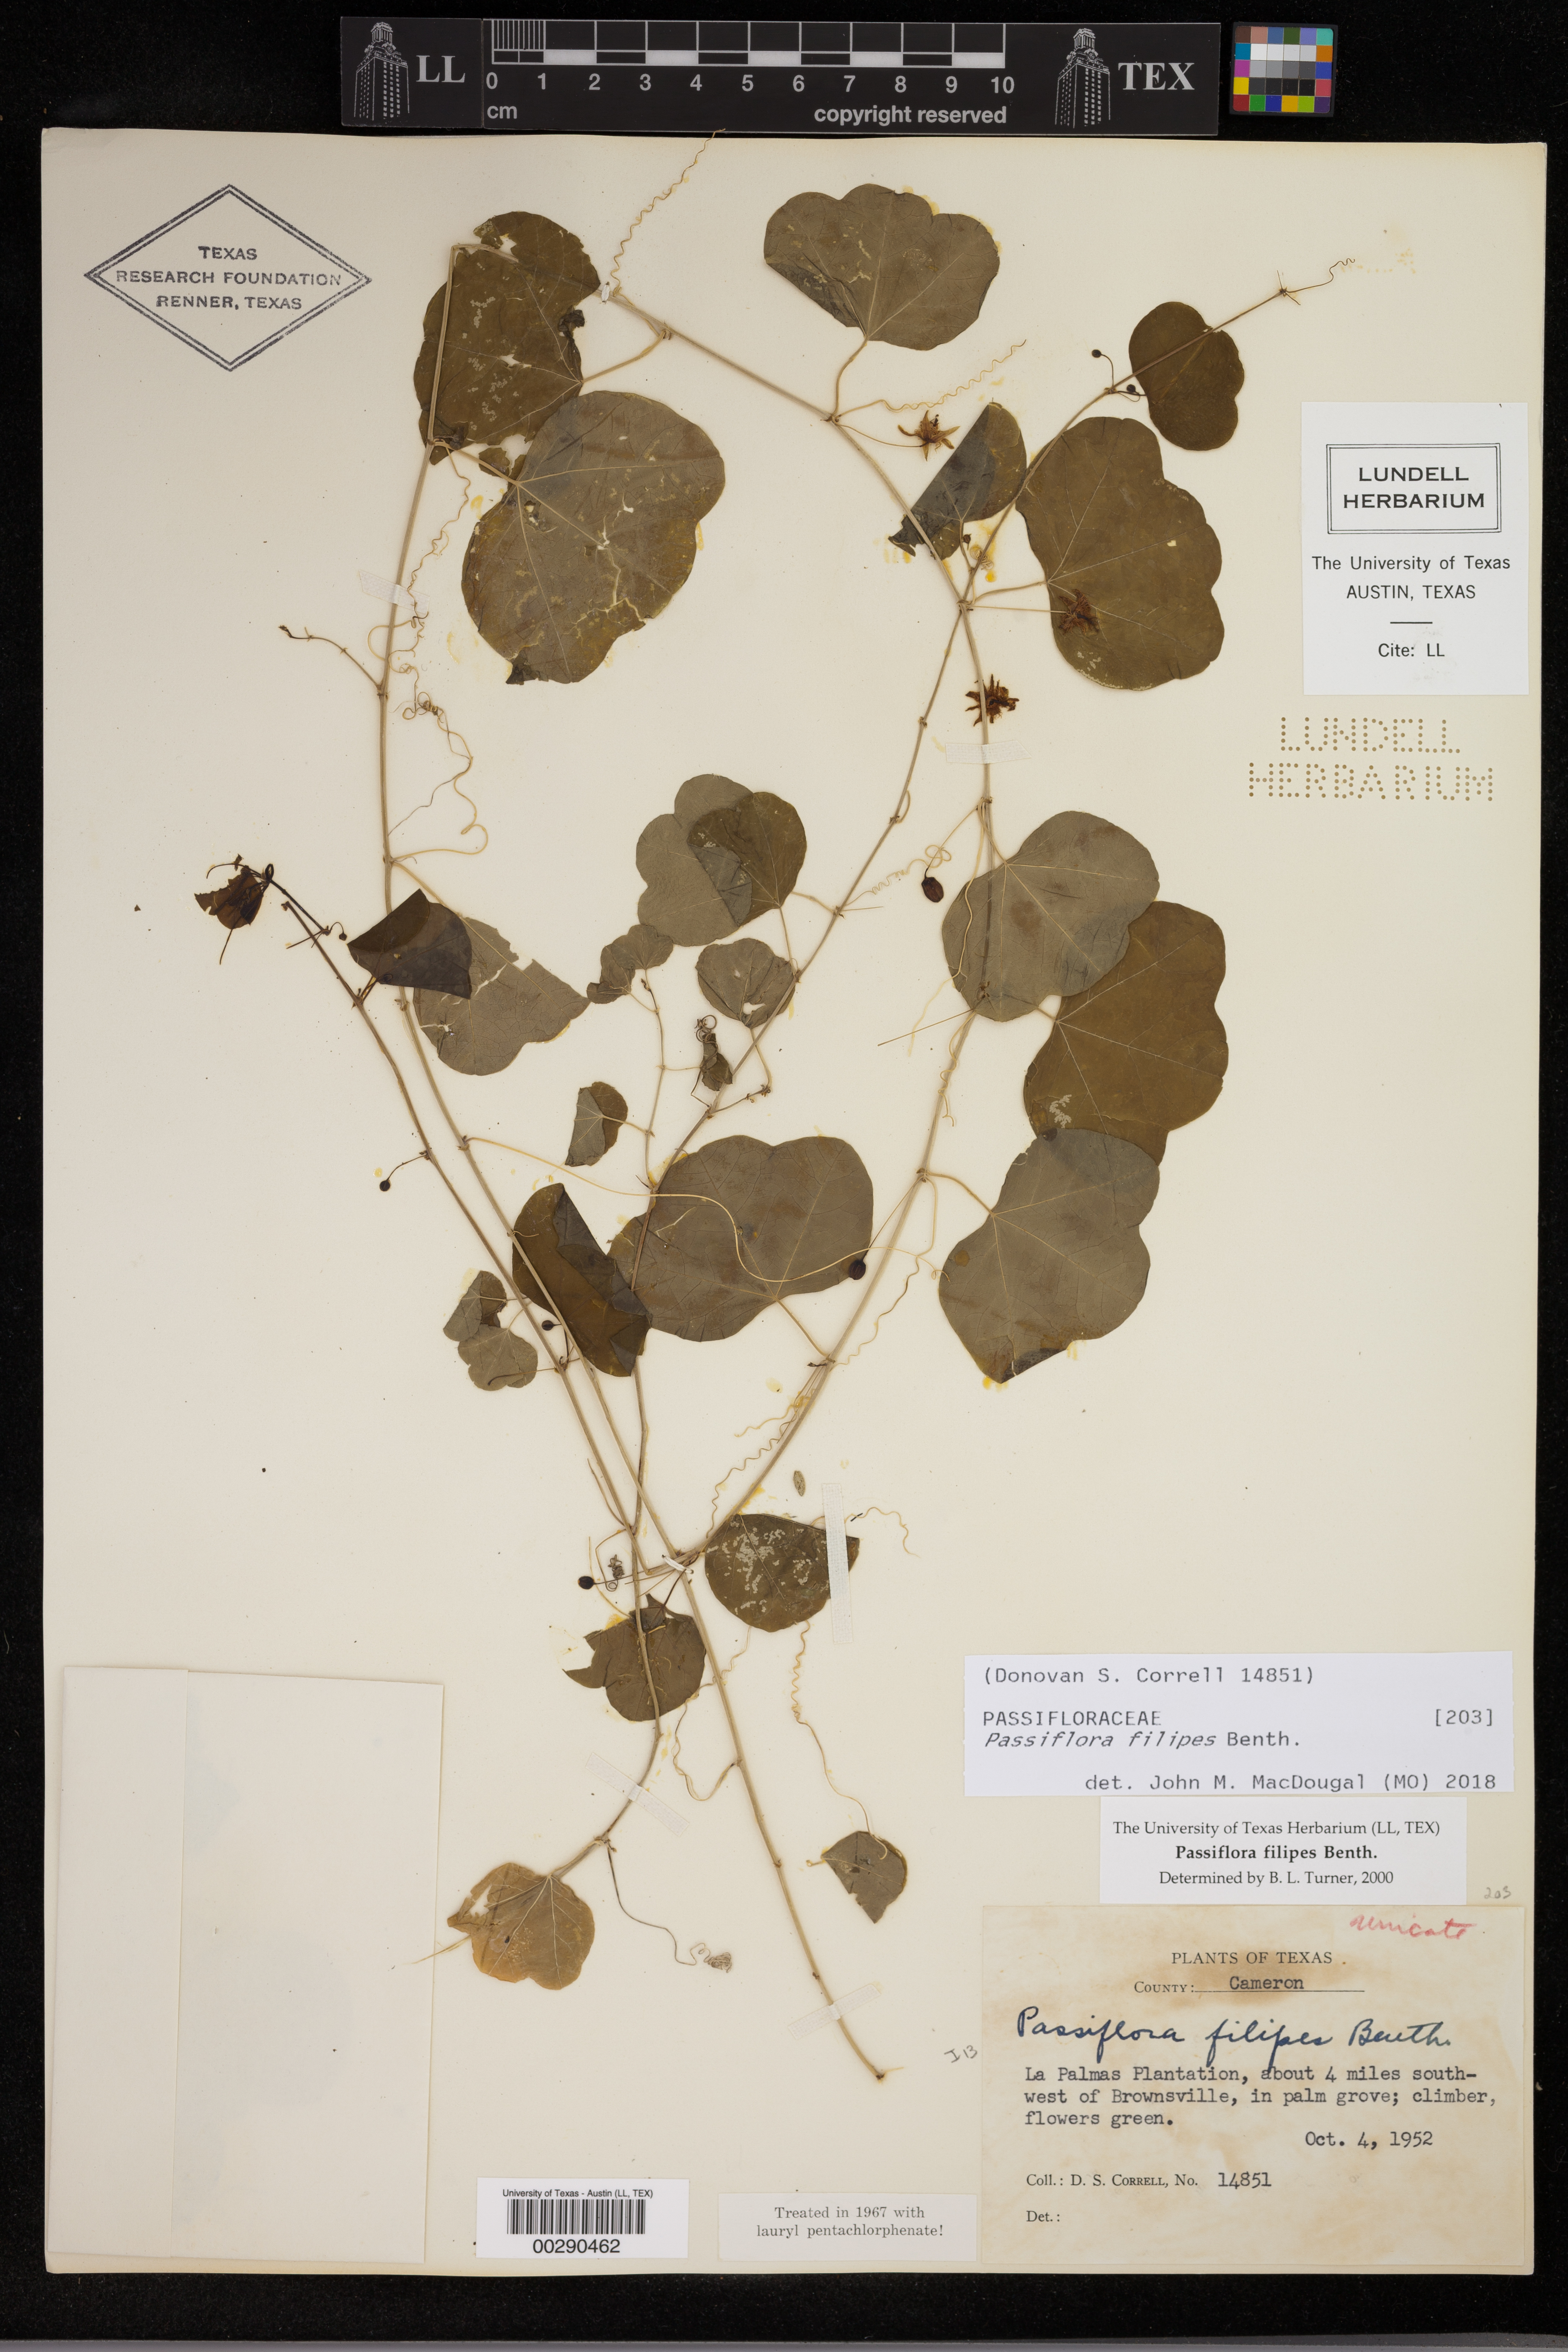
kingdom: Plantae
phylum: Tracheophyta
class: Magnoliopsida
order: Malpighiales
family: Passifloraceae
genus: Passiflora
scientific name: Passiflora filipes
